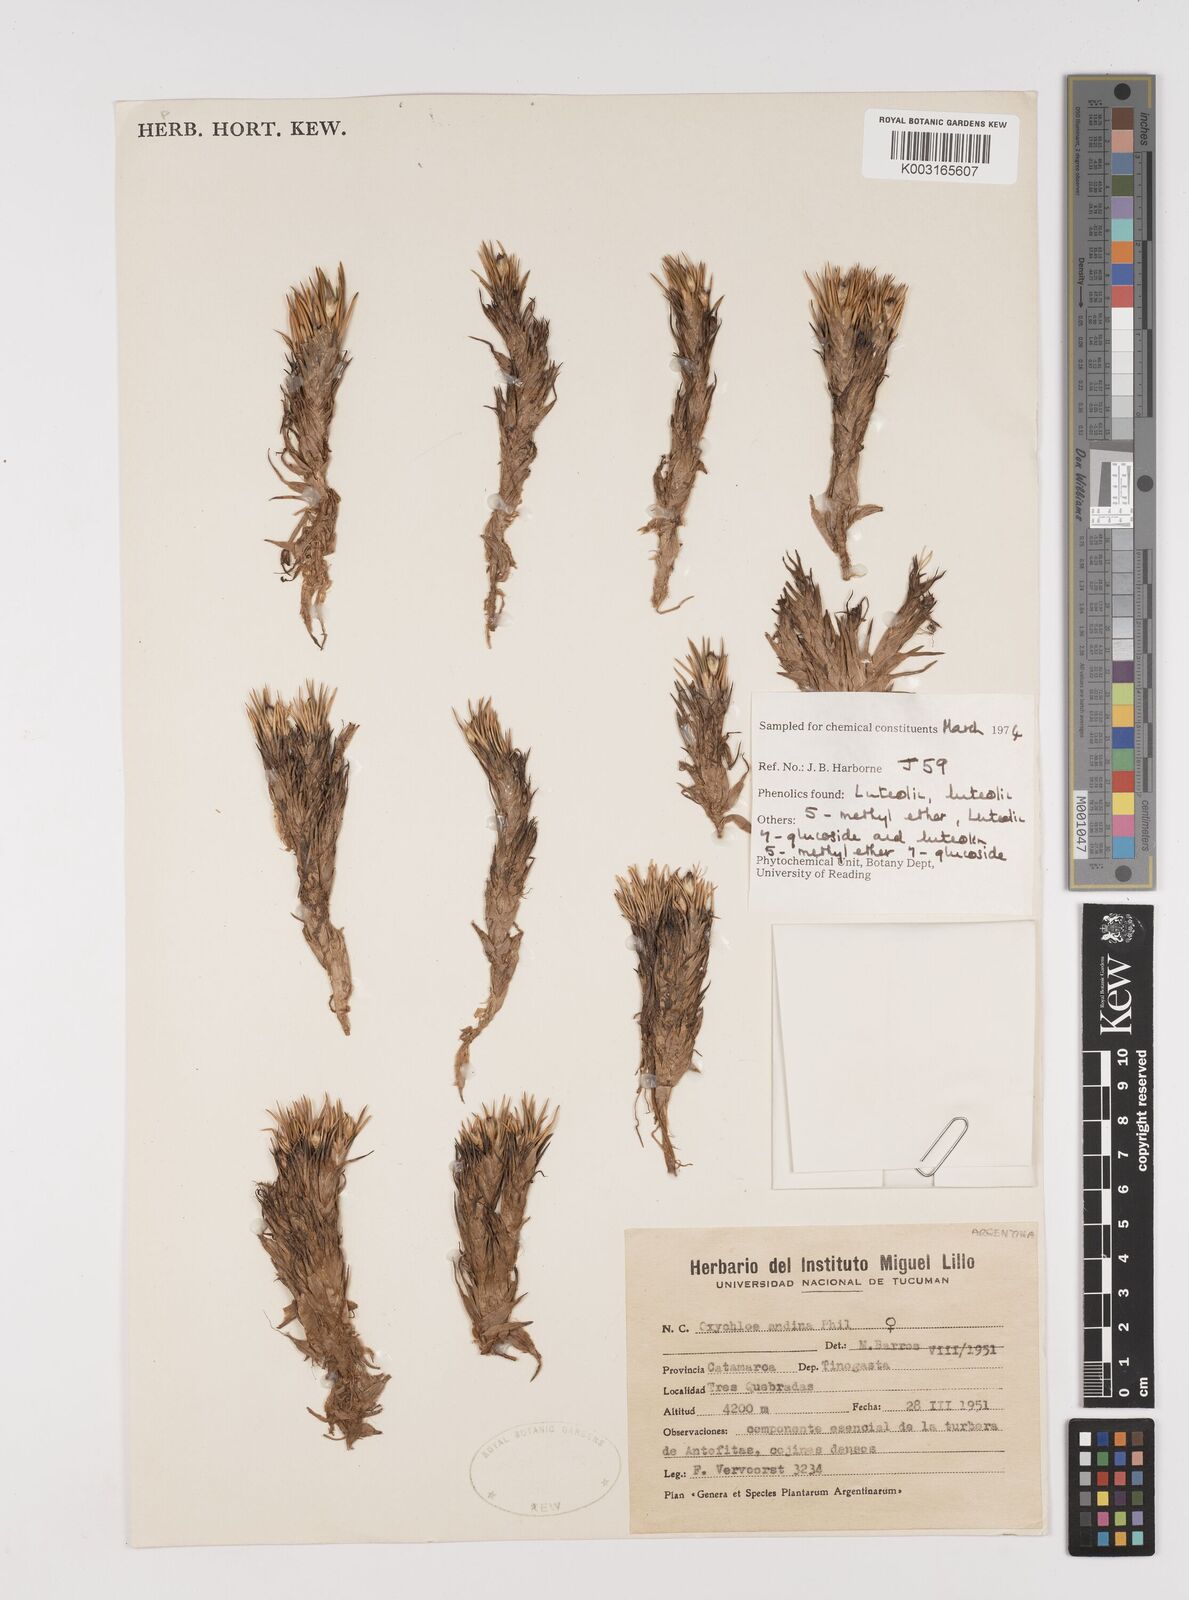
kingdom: Plantae
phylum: Tracheophyta
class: Liliopsida
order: Poales
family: Juncaceae
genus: Oxychloe
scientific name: Oxychloe andina
